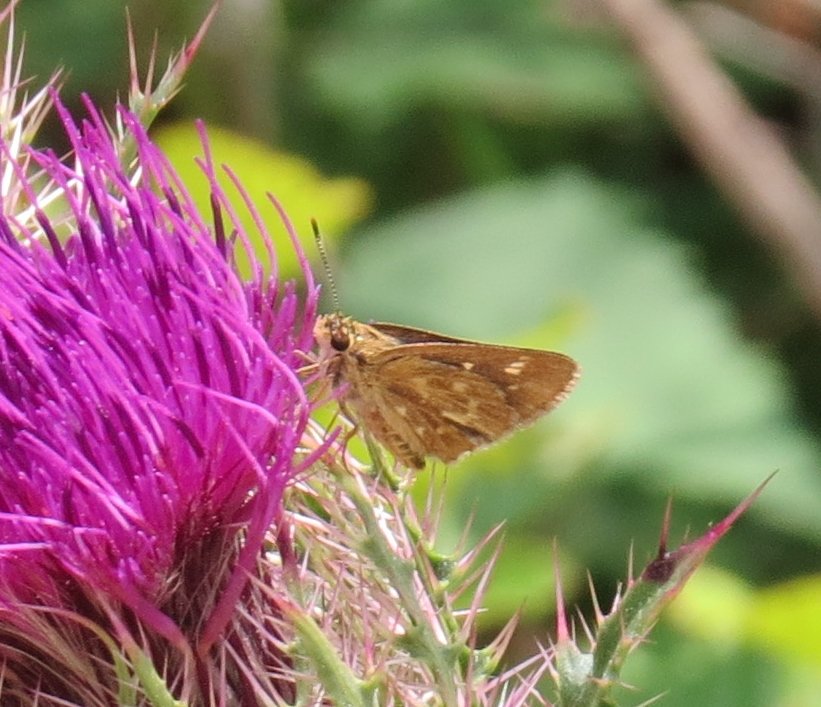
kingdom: Animalia
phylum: Arthropoda
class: Insecta
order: Lepidoptera
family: Hesperiidae
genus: Mastor
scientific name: Mastor carolina
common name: Reversed Roadside-skipper
